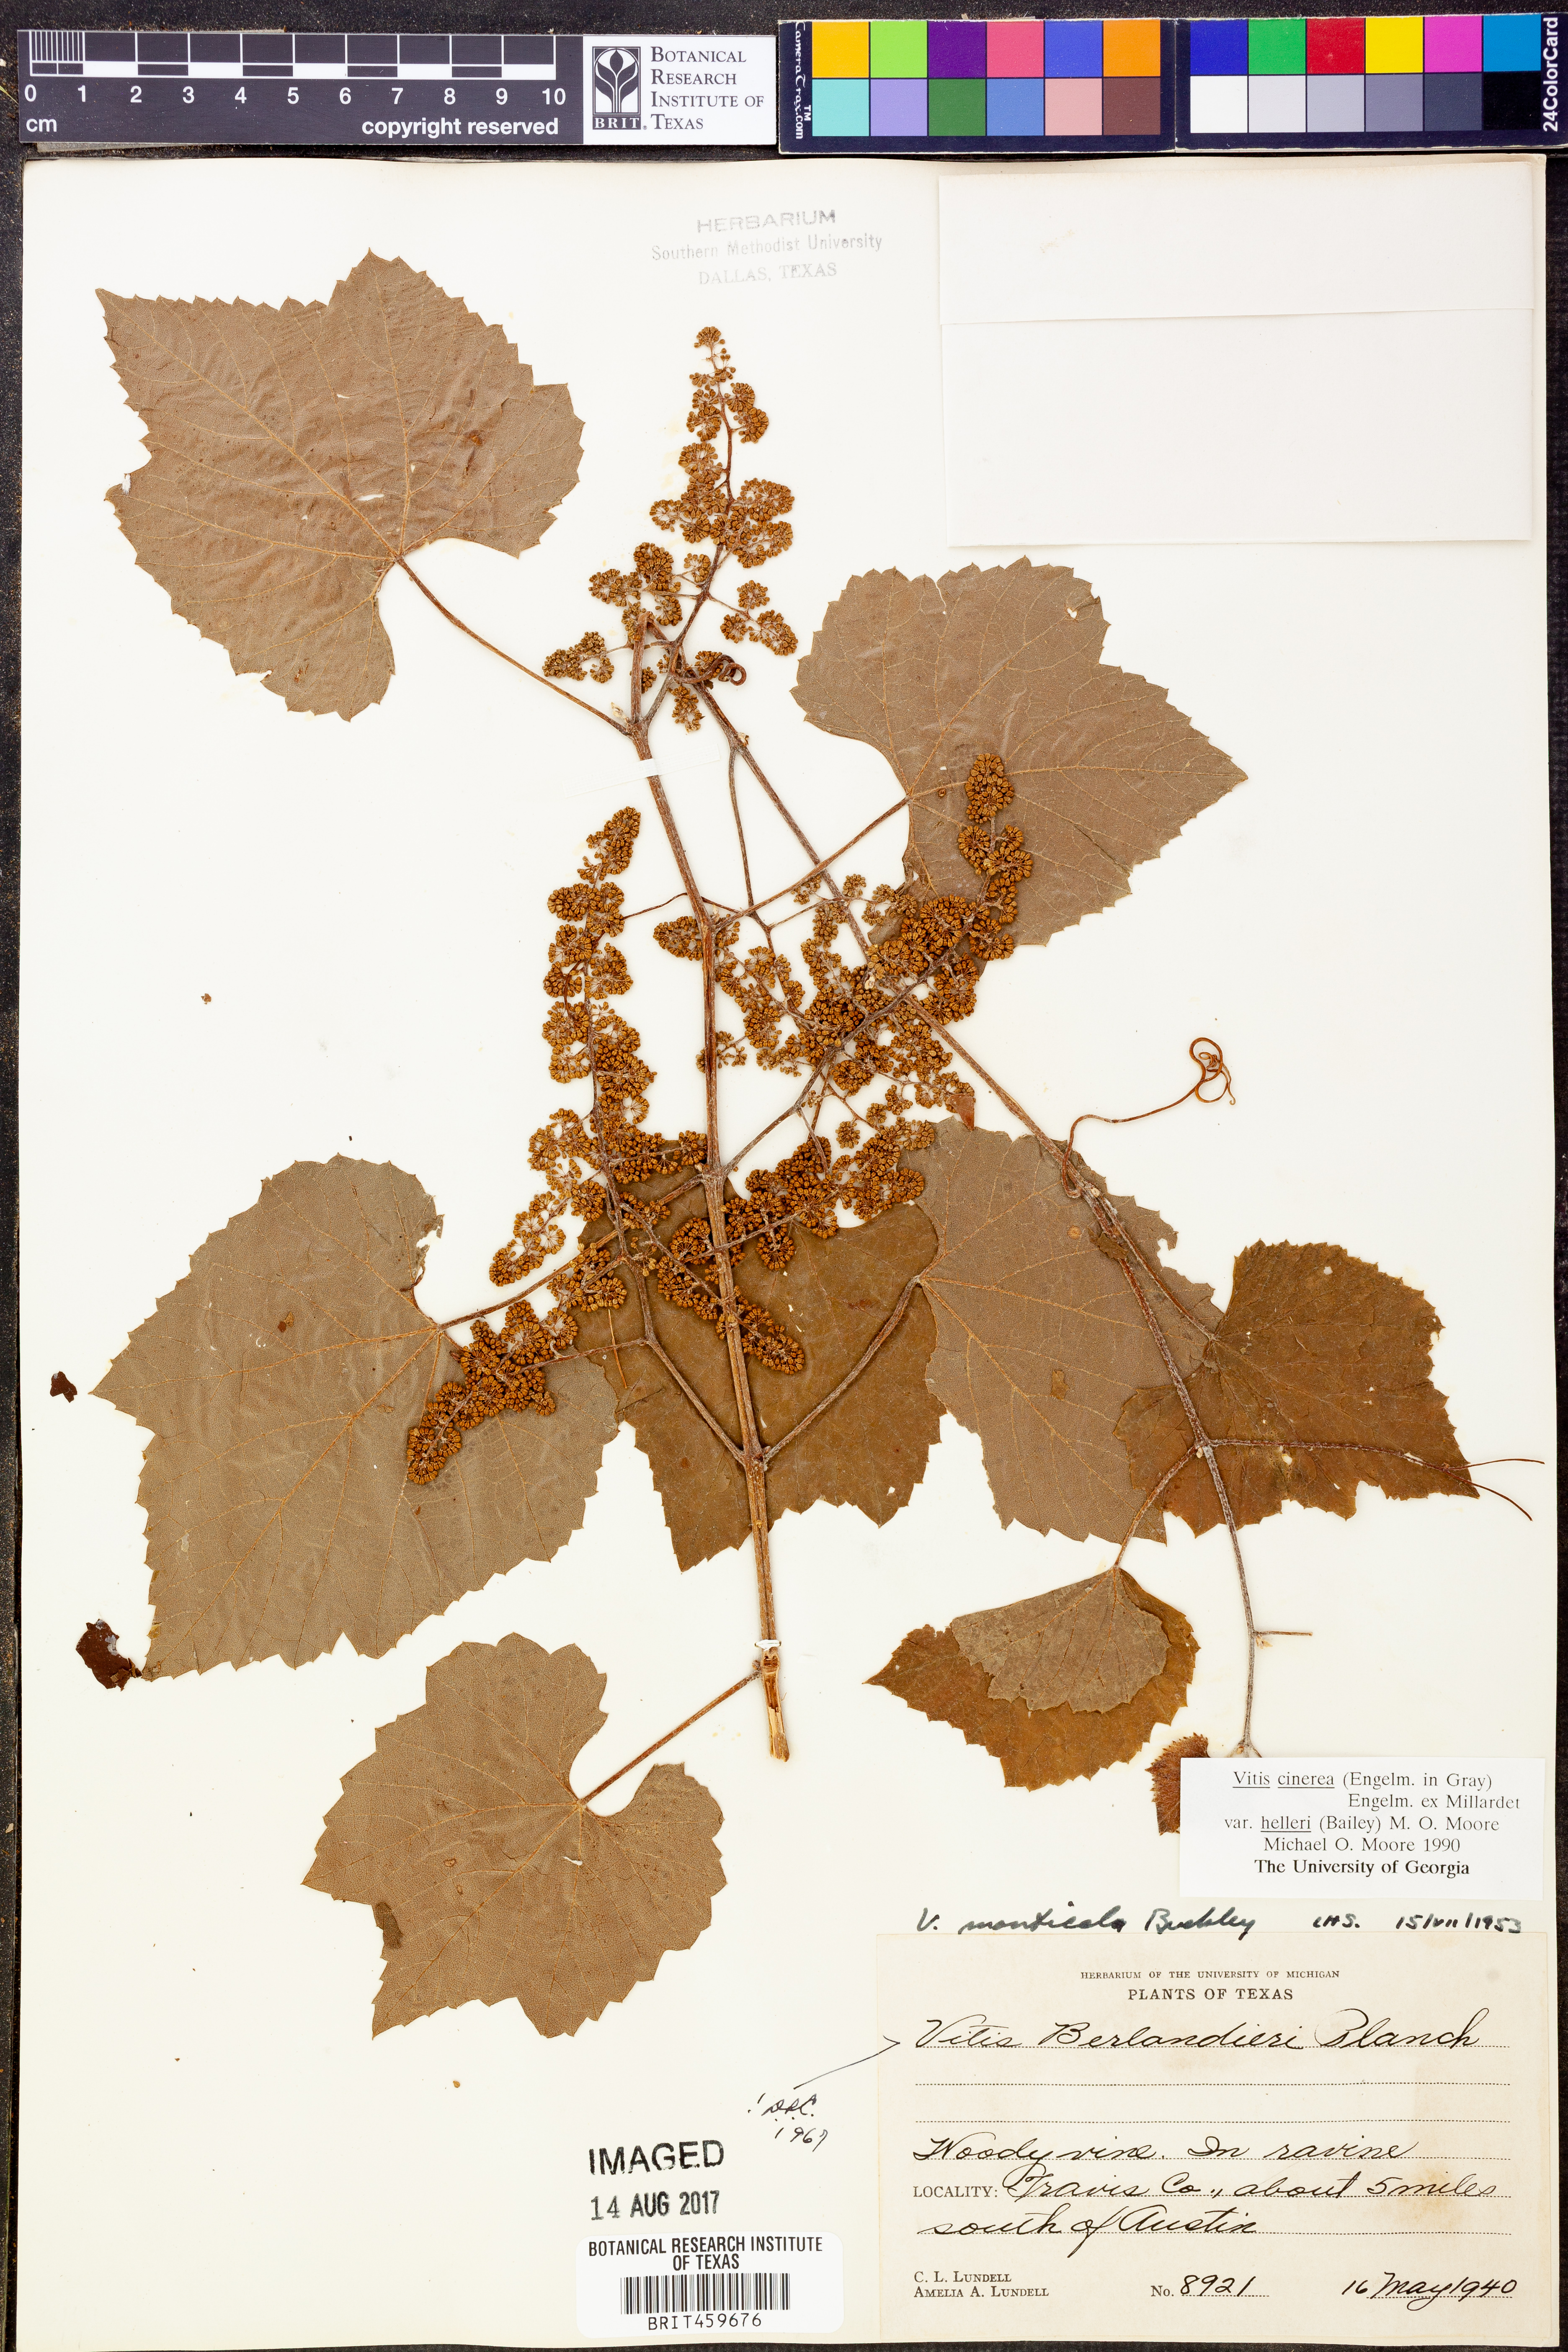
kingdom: Plantae
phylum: Tracheophyta
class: Magnoliopsida
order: Vitales
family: Vitaceae
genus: Vitis
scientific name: Vitis cinerea
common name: Ashy grape
